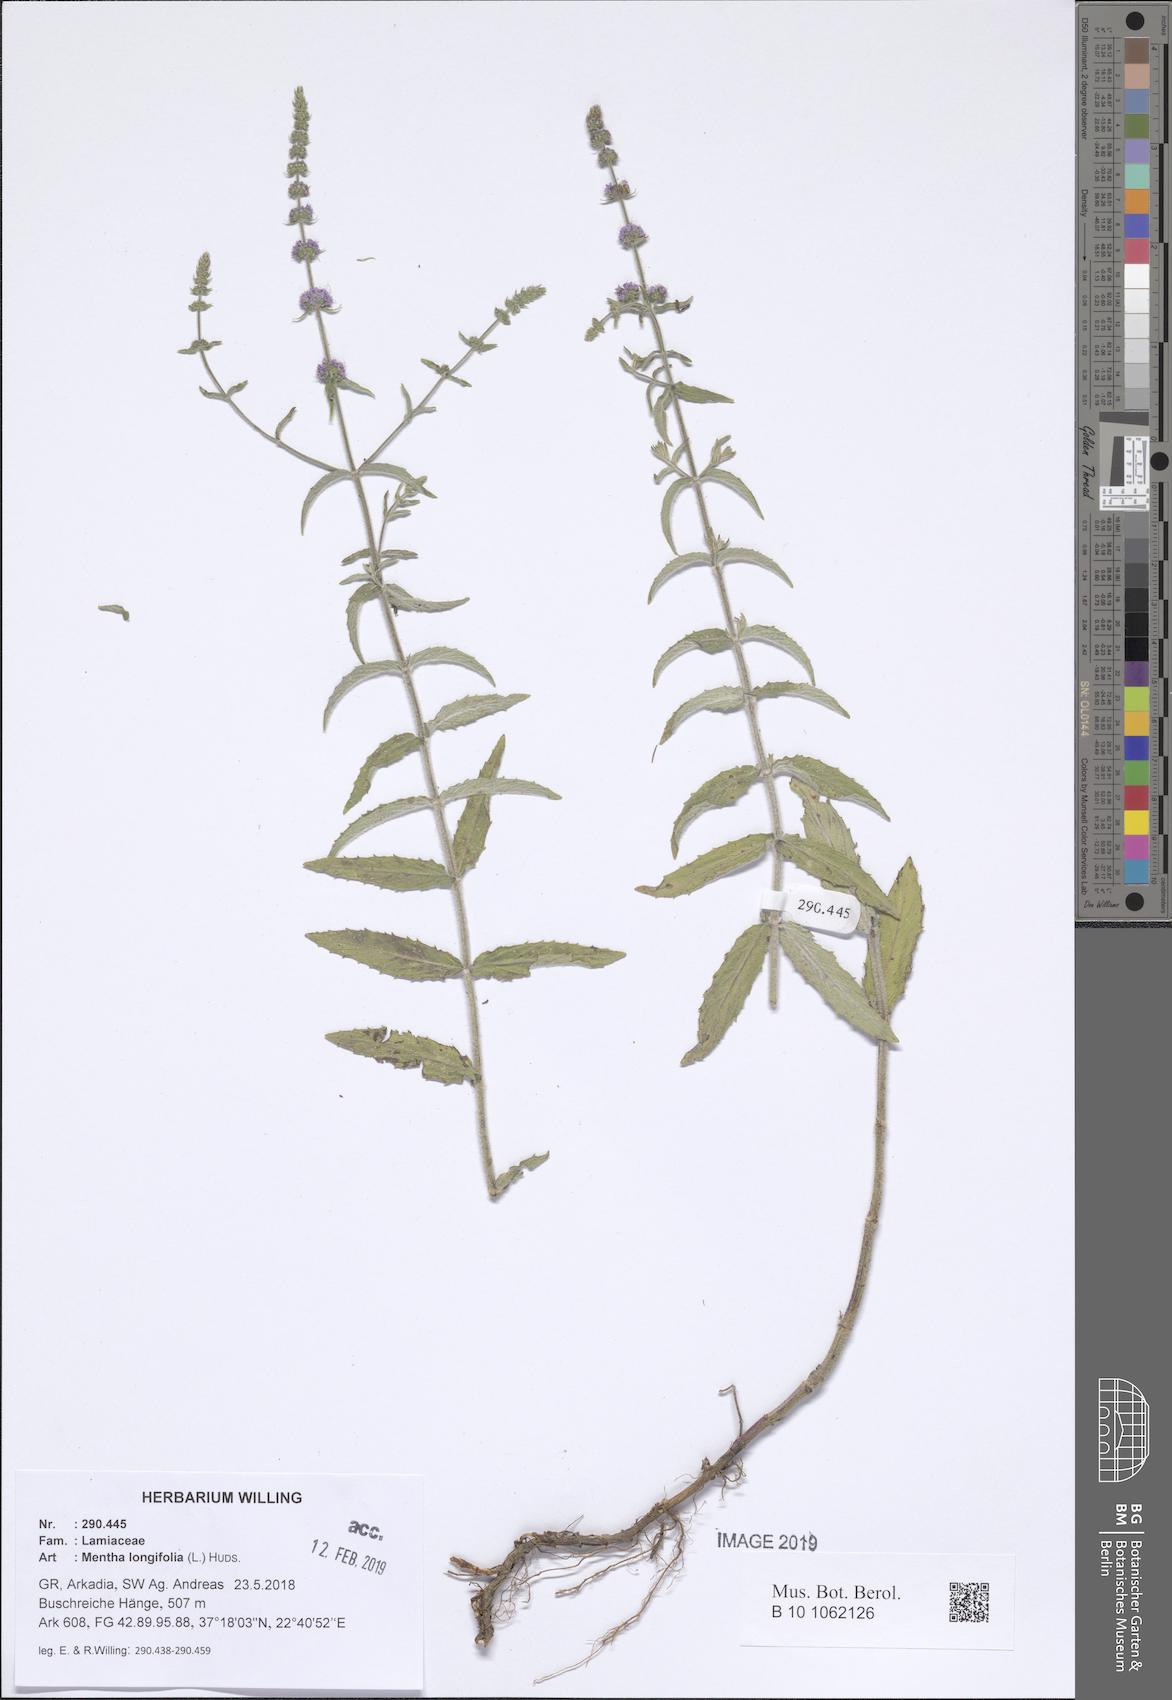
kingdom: Plantae
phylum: Tracheophyta
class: Magnoliopsida
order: Lamiales
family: Lamiaceae
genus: Mentha
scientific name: Mentha longifolia
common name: Horse mint
